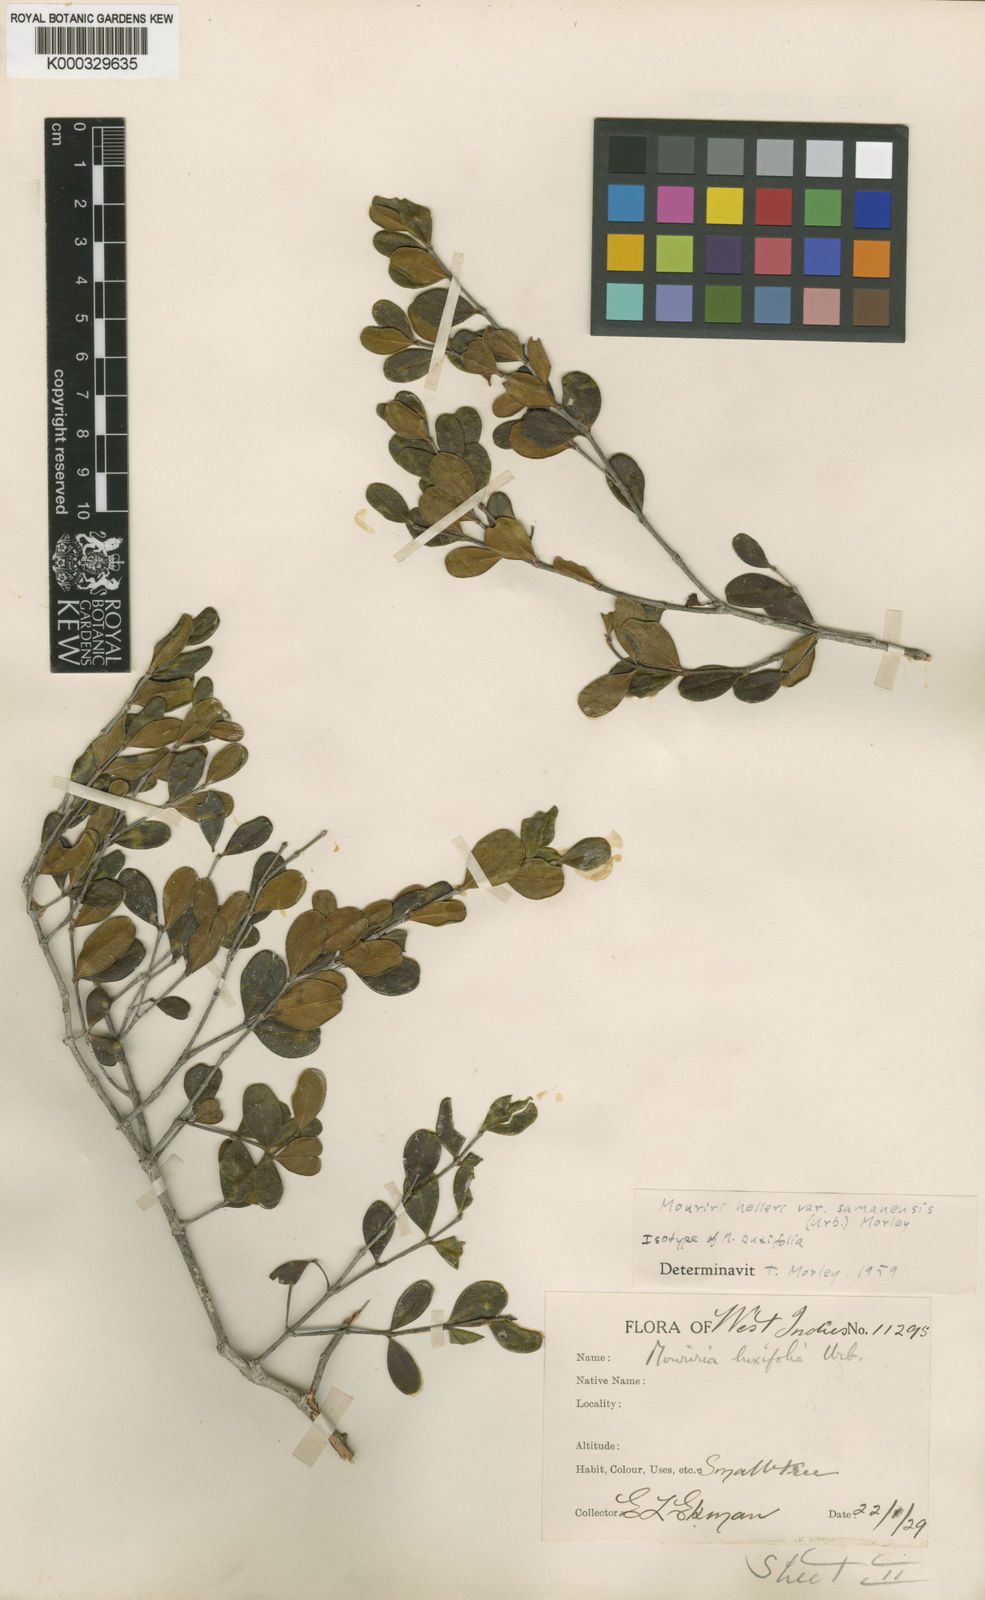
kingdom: Plantae
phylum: Tracheophyta
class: Magnoliopsida
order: Myrtales
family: Melastomataceae
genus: Mouriri
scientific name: Mouriri helleri
